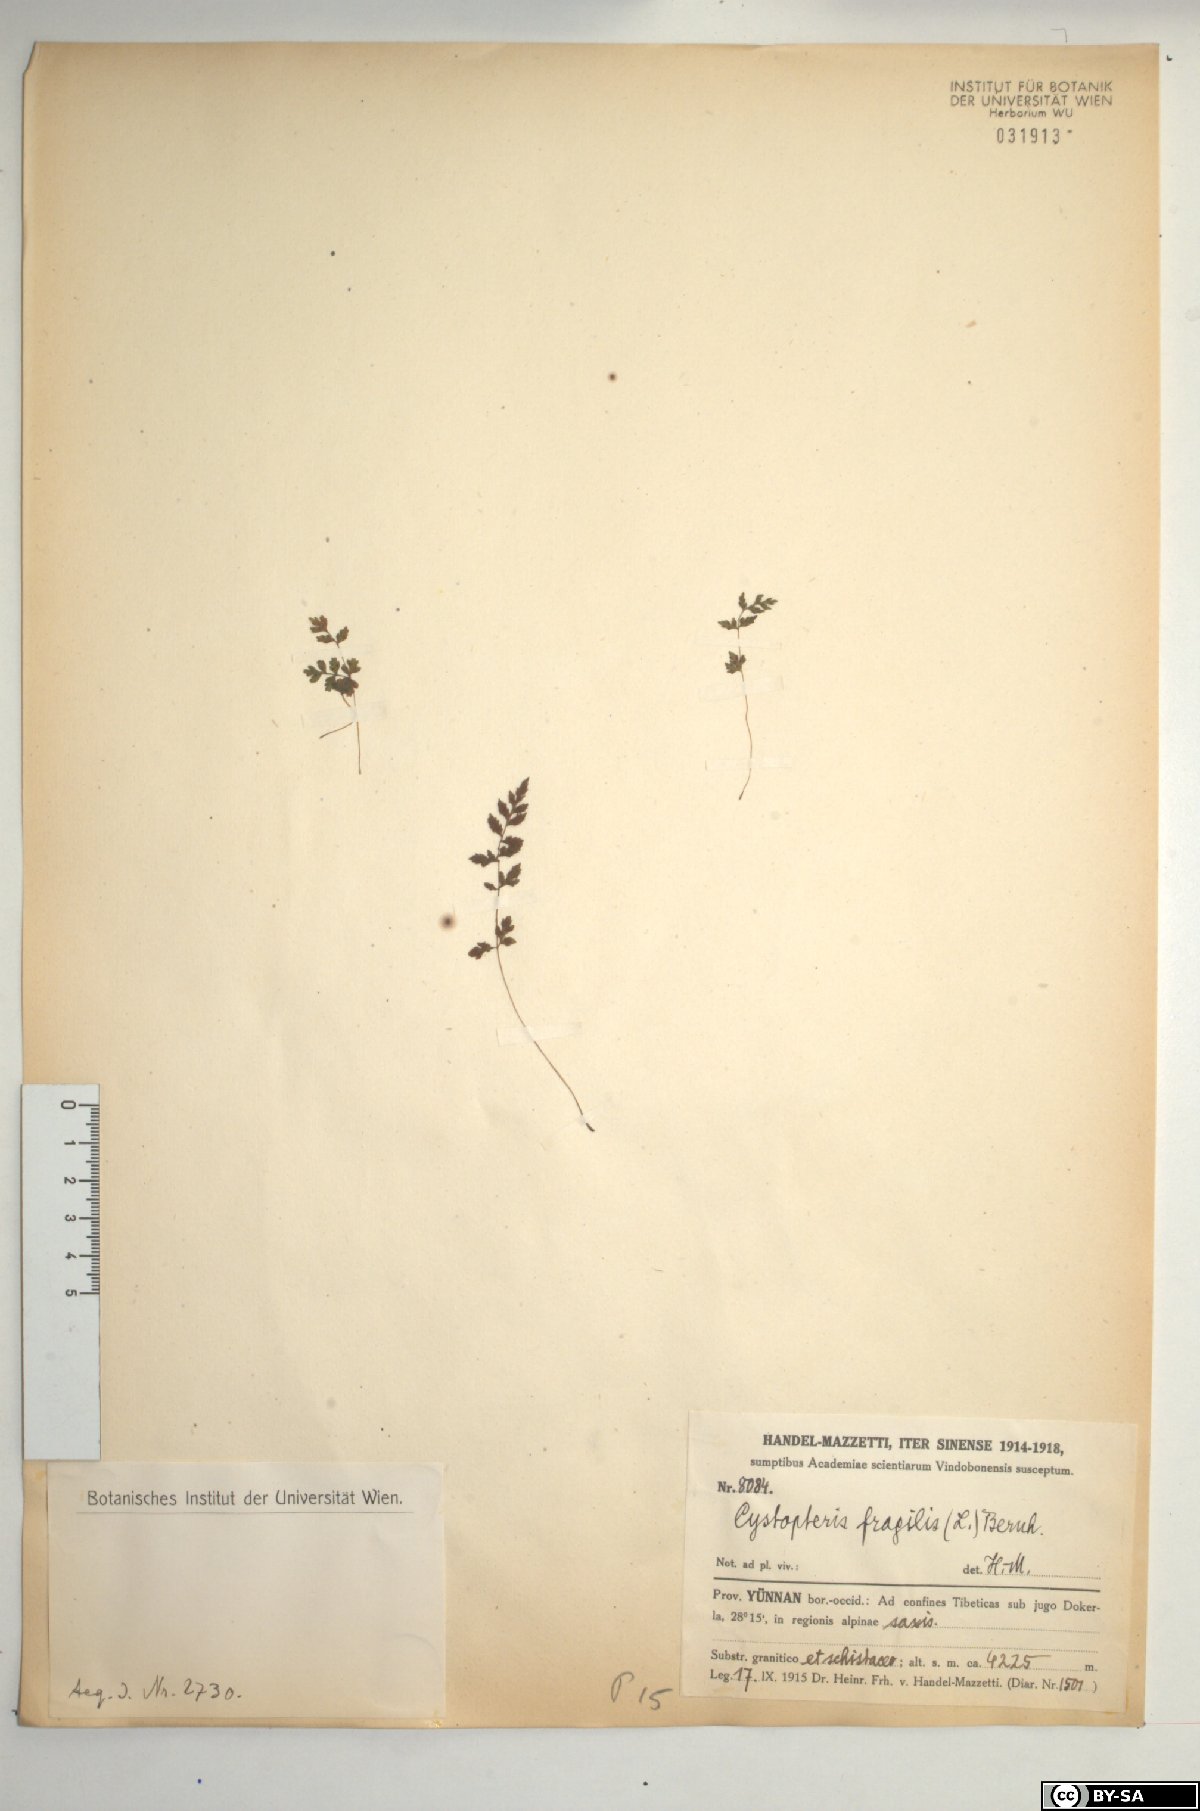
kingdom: Plantae
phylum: Tracheophyta
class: Polypodiopsida
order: Polypodiales
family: Cystopteridaceae
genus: Cystopteris
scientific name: Cystopteris fragilis
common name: Brittle bladder fern
